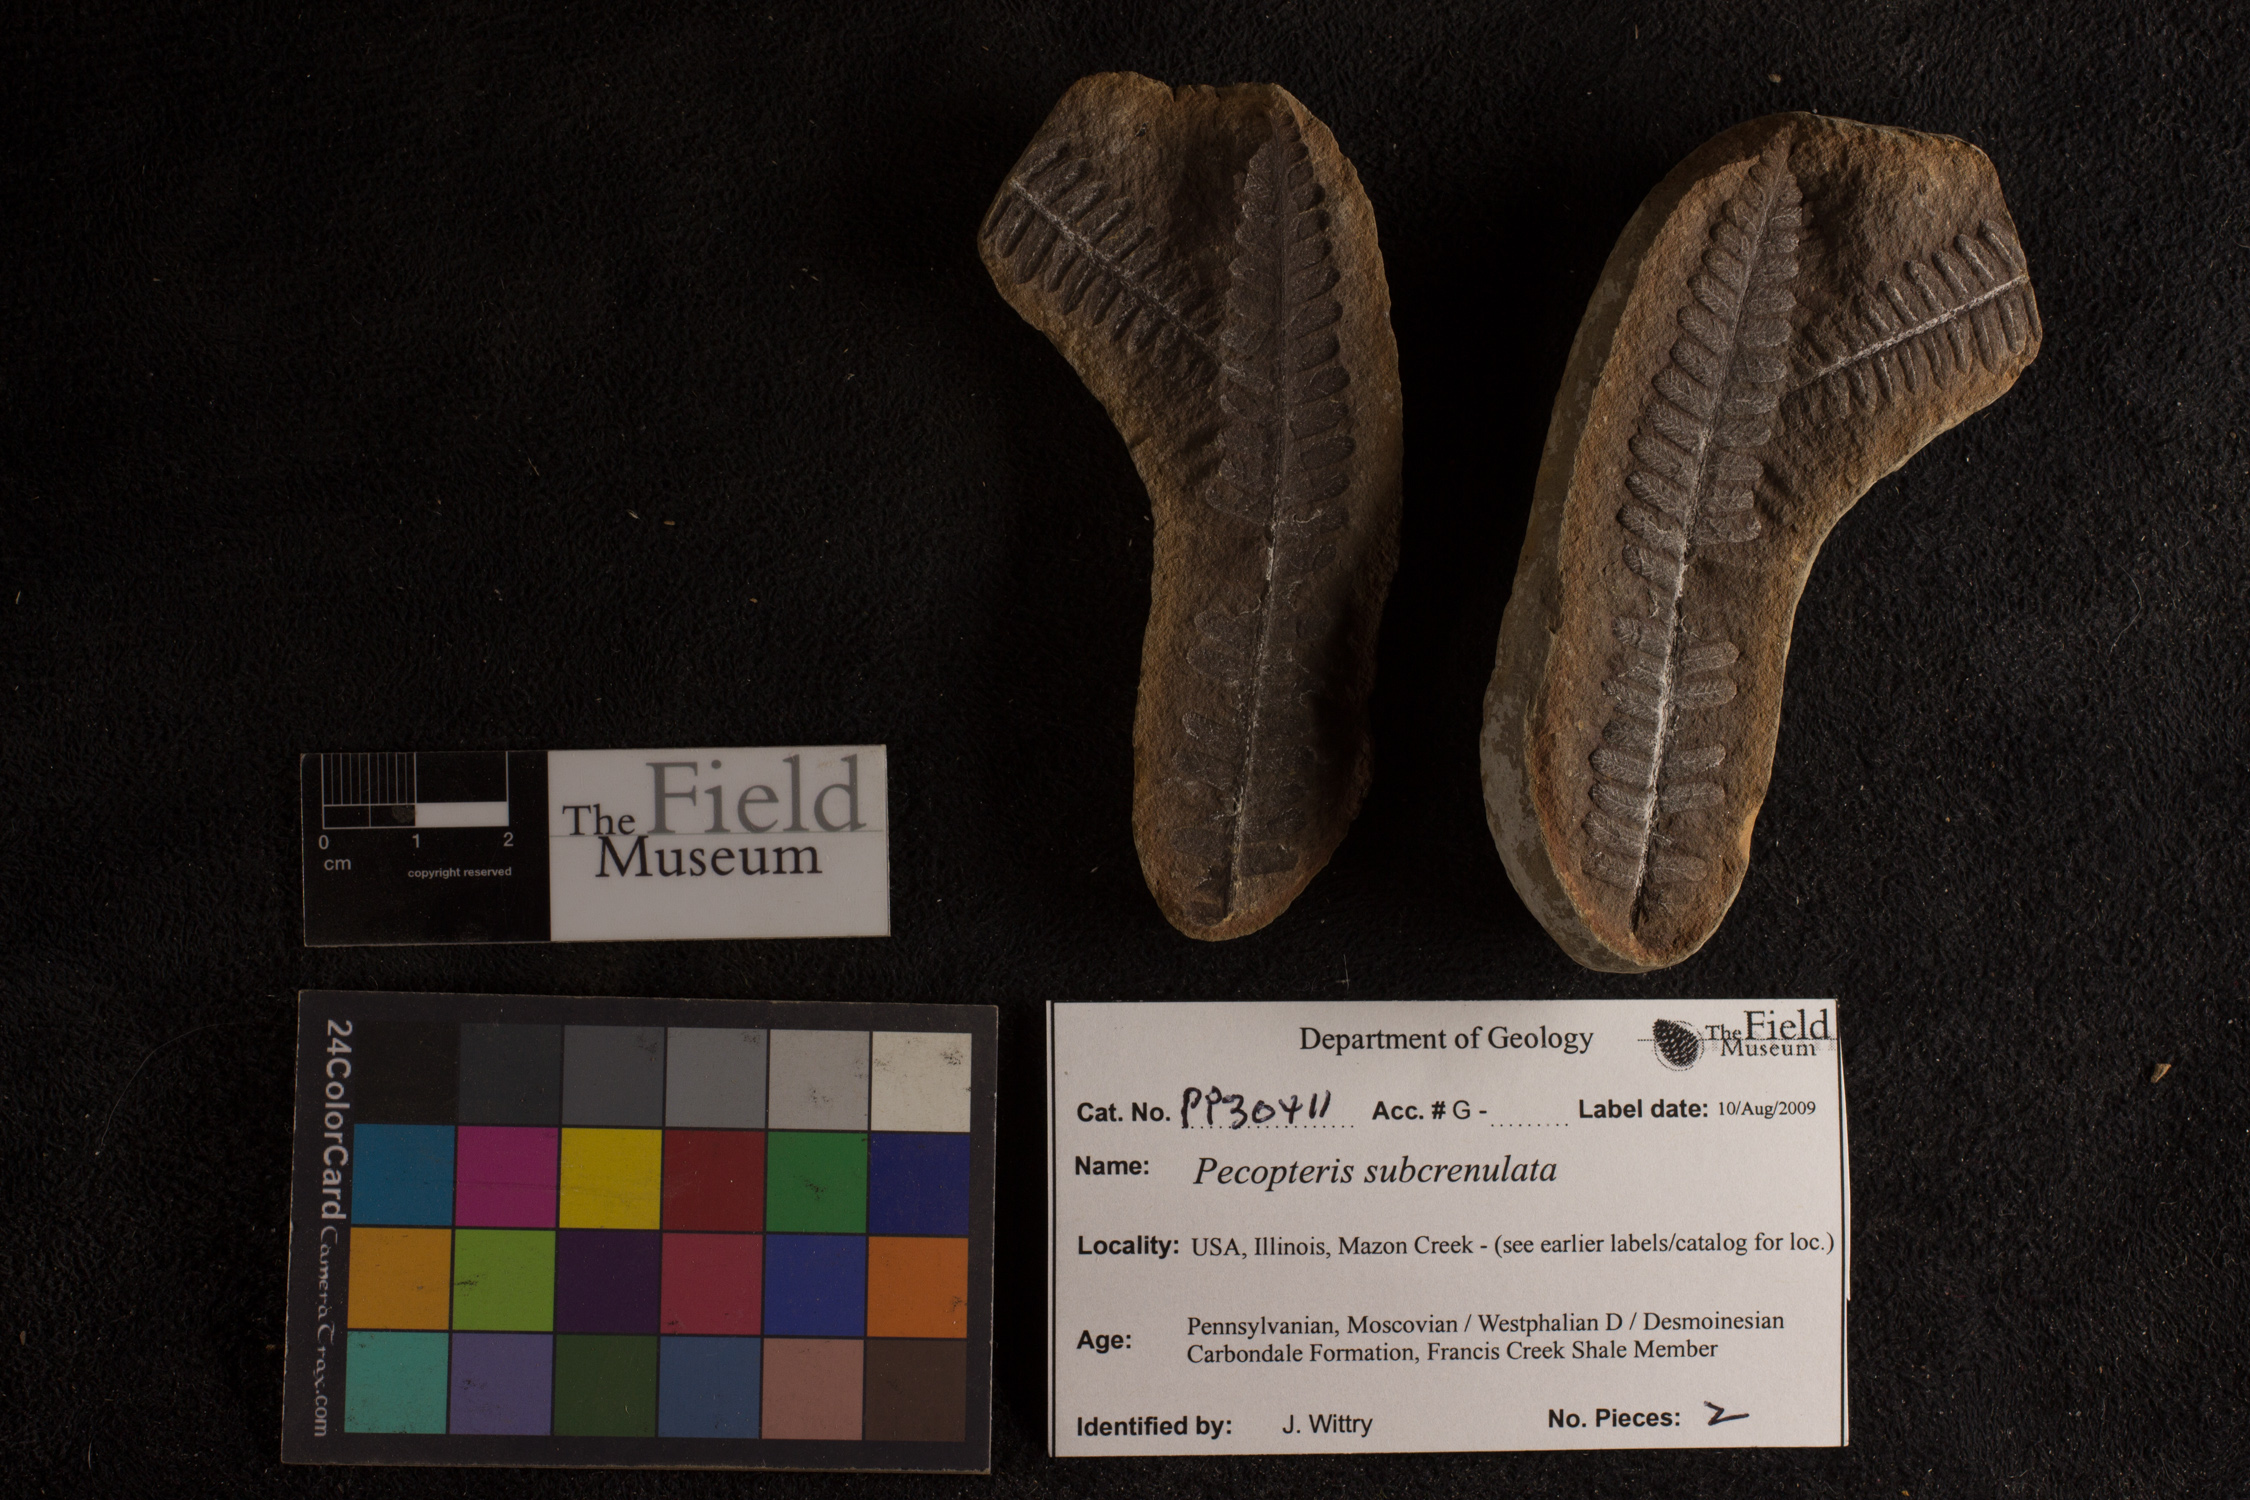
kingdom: Plantae
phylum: Tracheophyta
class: Polypodiopsida
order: Marattiales
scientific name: Marattiales
